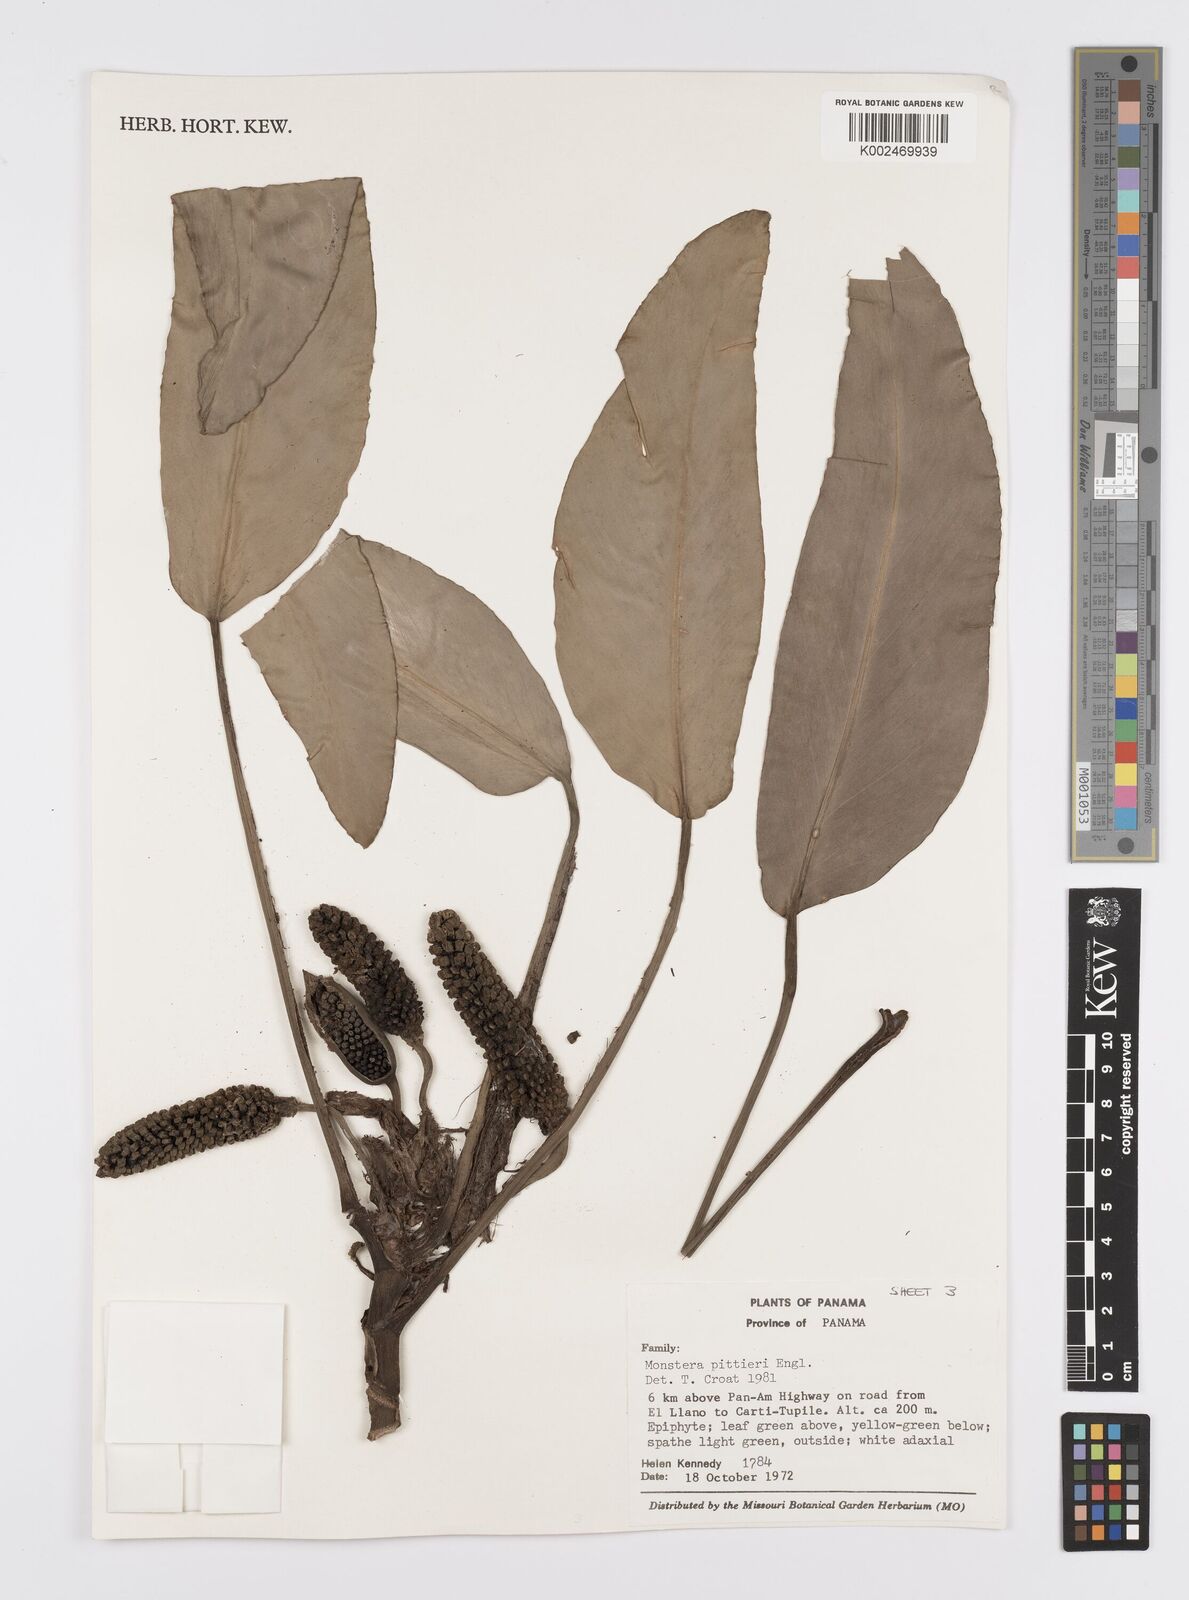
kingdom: Plantae
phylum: Tracheophyta
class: Liliopsida
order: Alismatales
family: Araceae
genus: Monstera
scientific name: Monstera pittieri
